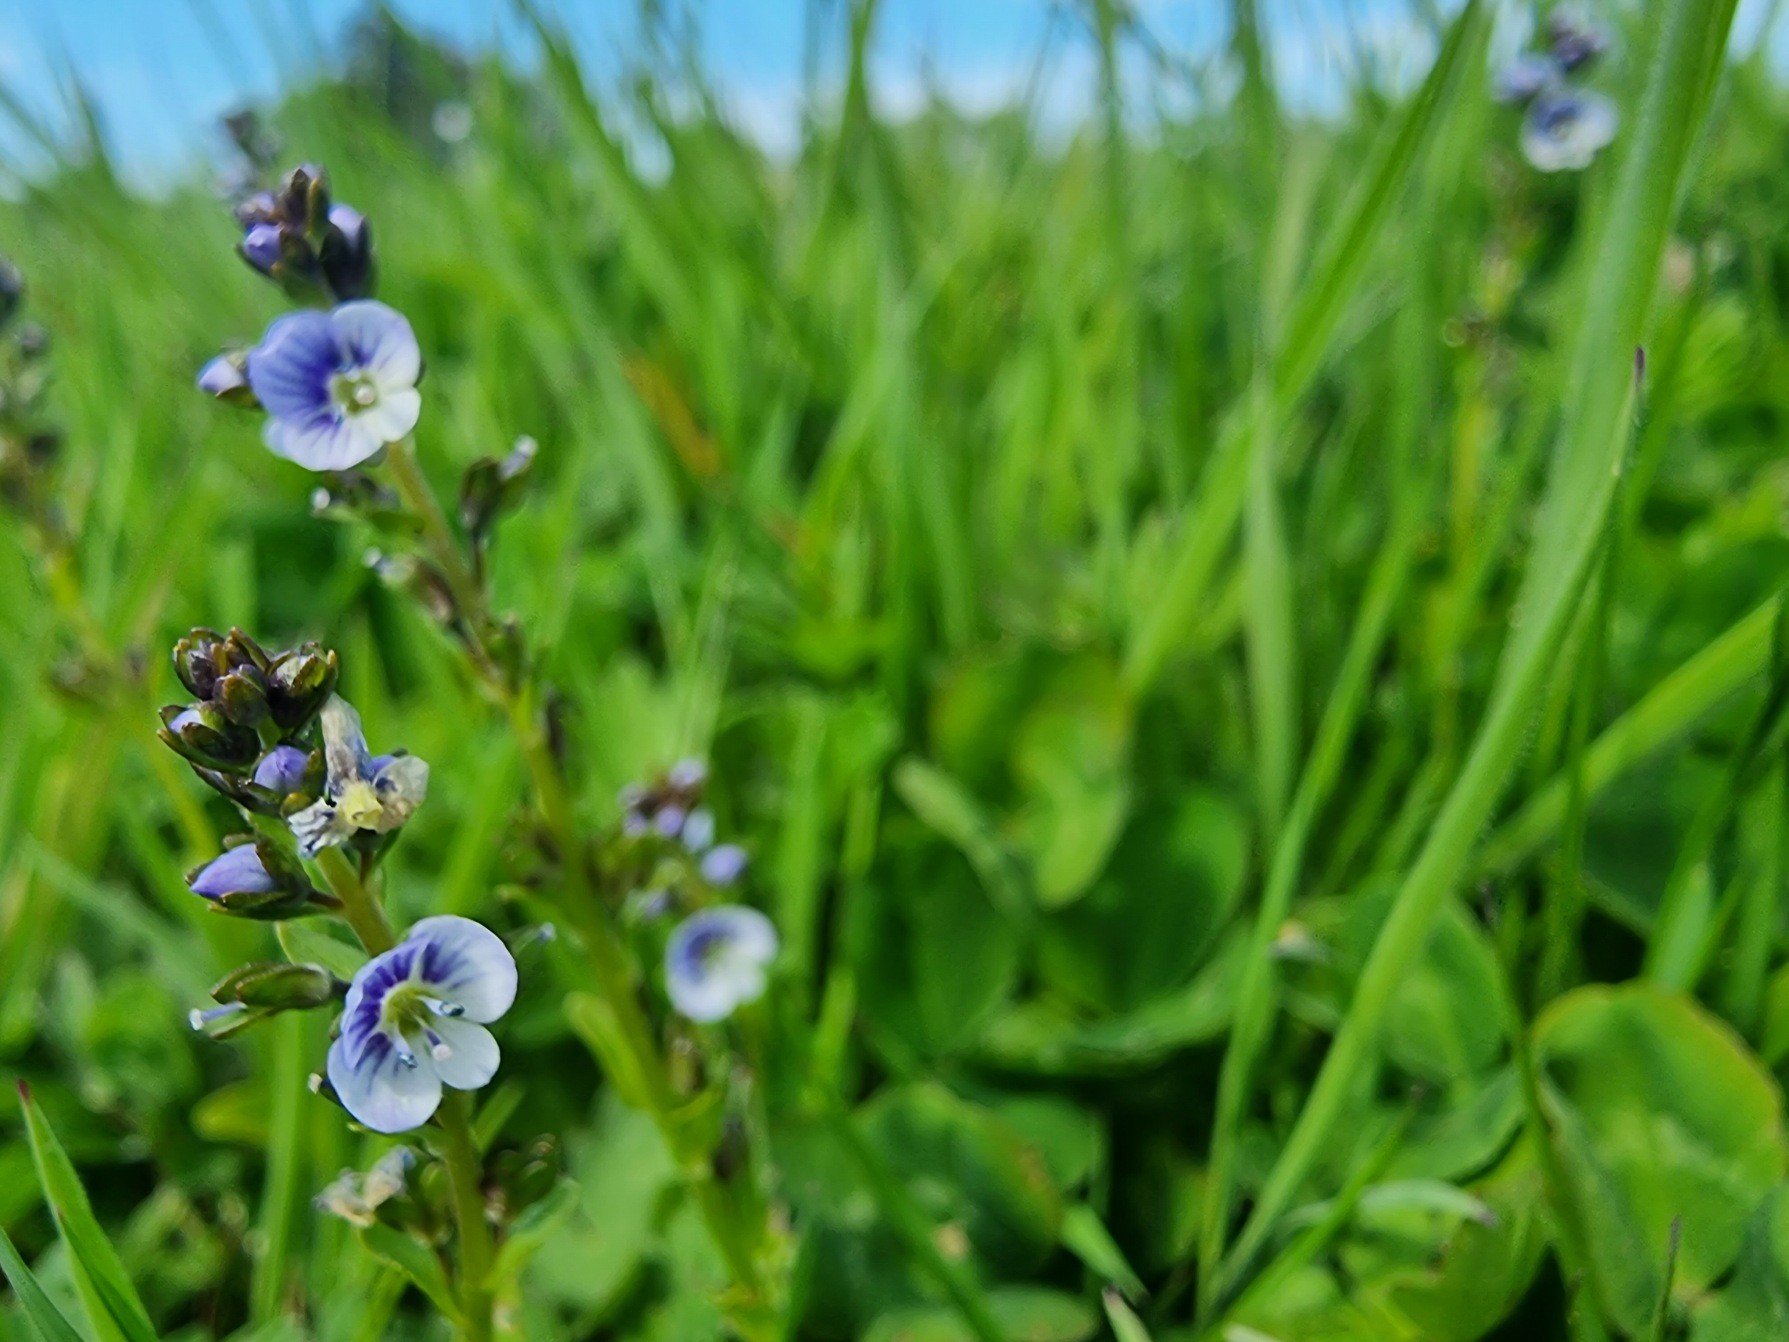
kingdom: Plantae
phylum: Tracheophyta
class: Magnoliopsida
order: Lamiales
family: Plantaginaceae
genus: Veronica
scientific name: Veronica serpyllifolia
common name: Glat ærenpris
